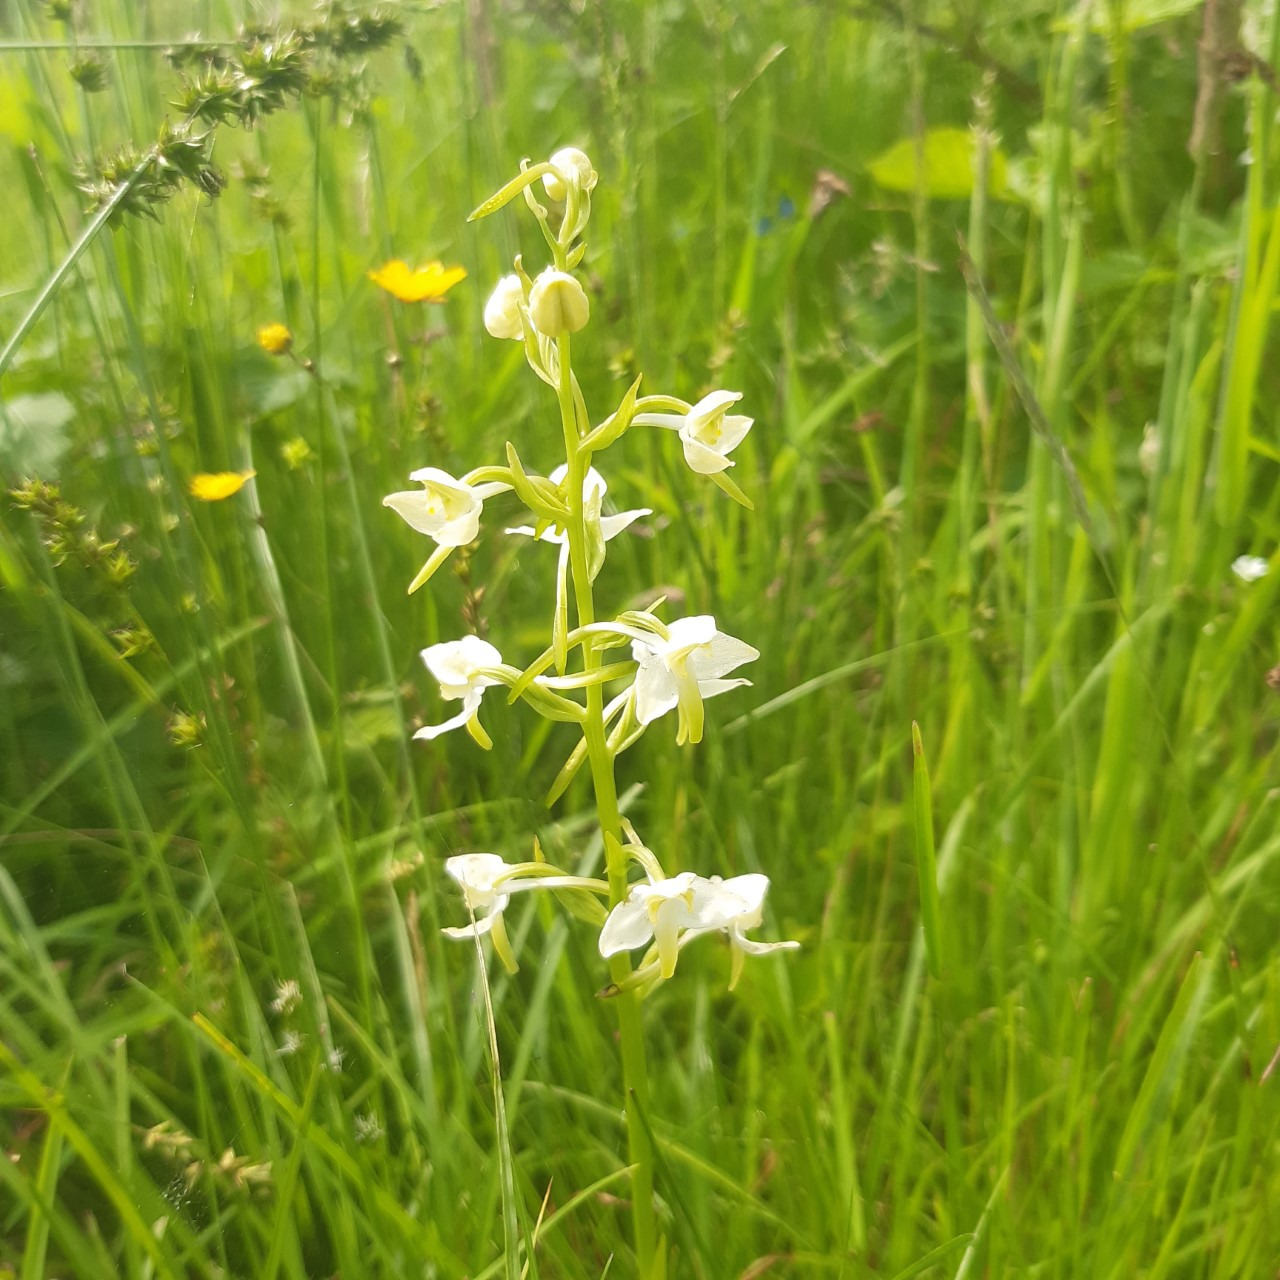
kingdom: Plantae
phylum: Tracheophyta
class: Liliopsida
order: Asparagales
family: Orchidaceae
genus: Platanthera
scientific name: Platanthera chlorantha
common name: Skov-gøgelilje
